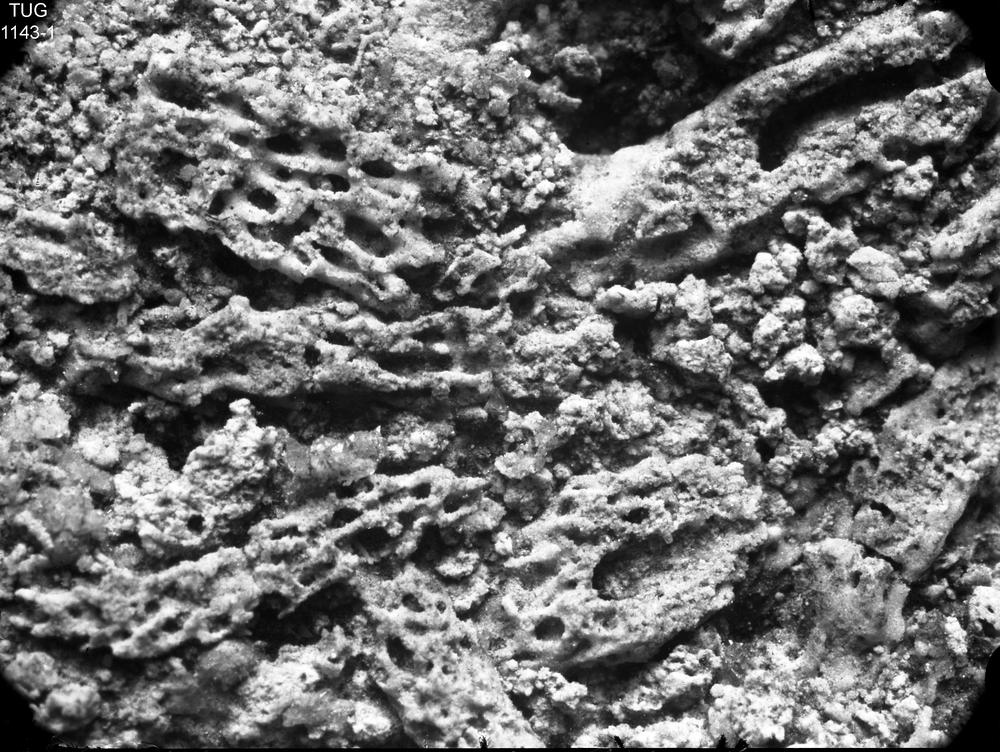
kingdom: Animalia
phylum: Nemertea
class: Hoplonemertea
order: Monostilifera
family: Amphiporidae
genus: Amphipora
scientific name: Amphipora Caunopora ramosa
